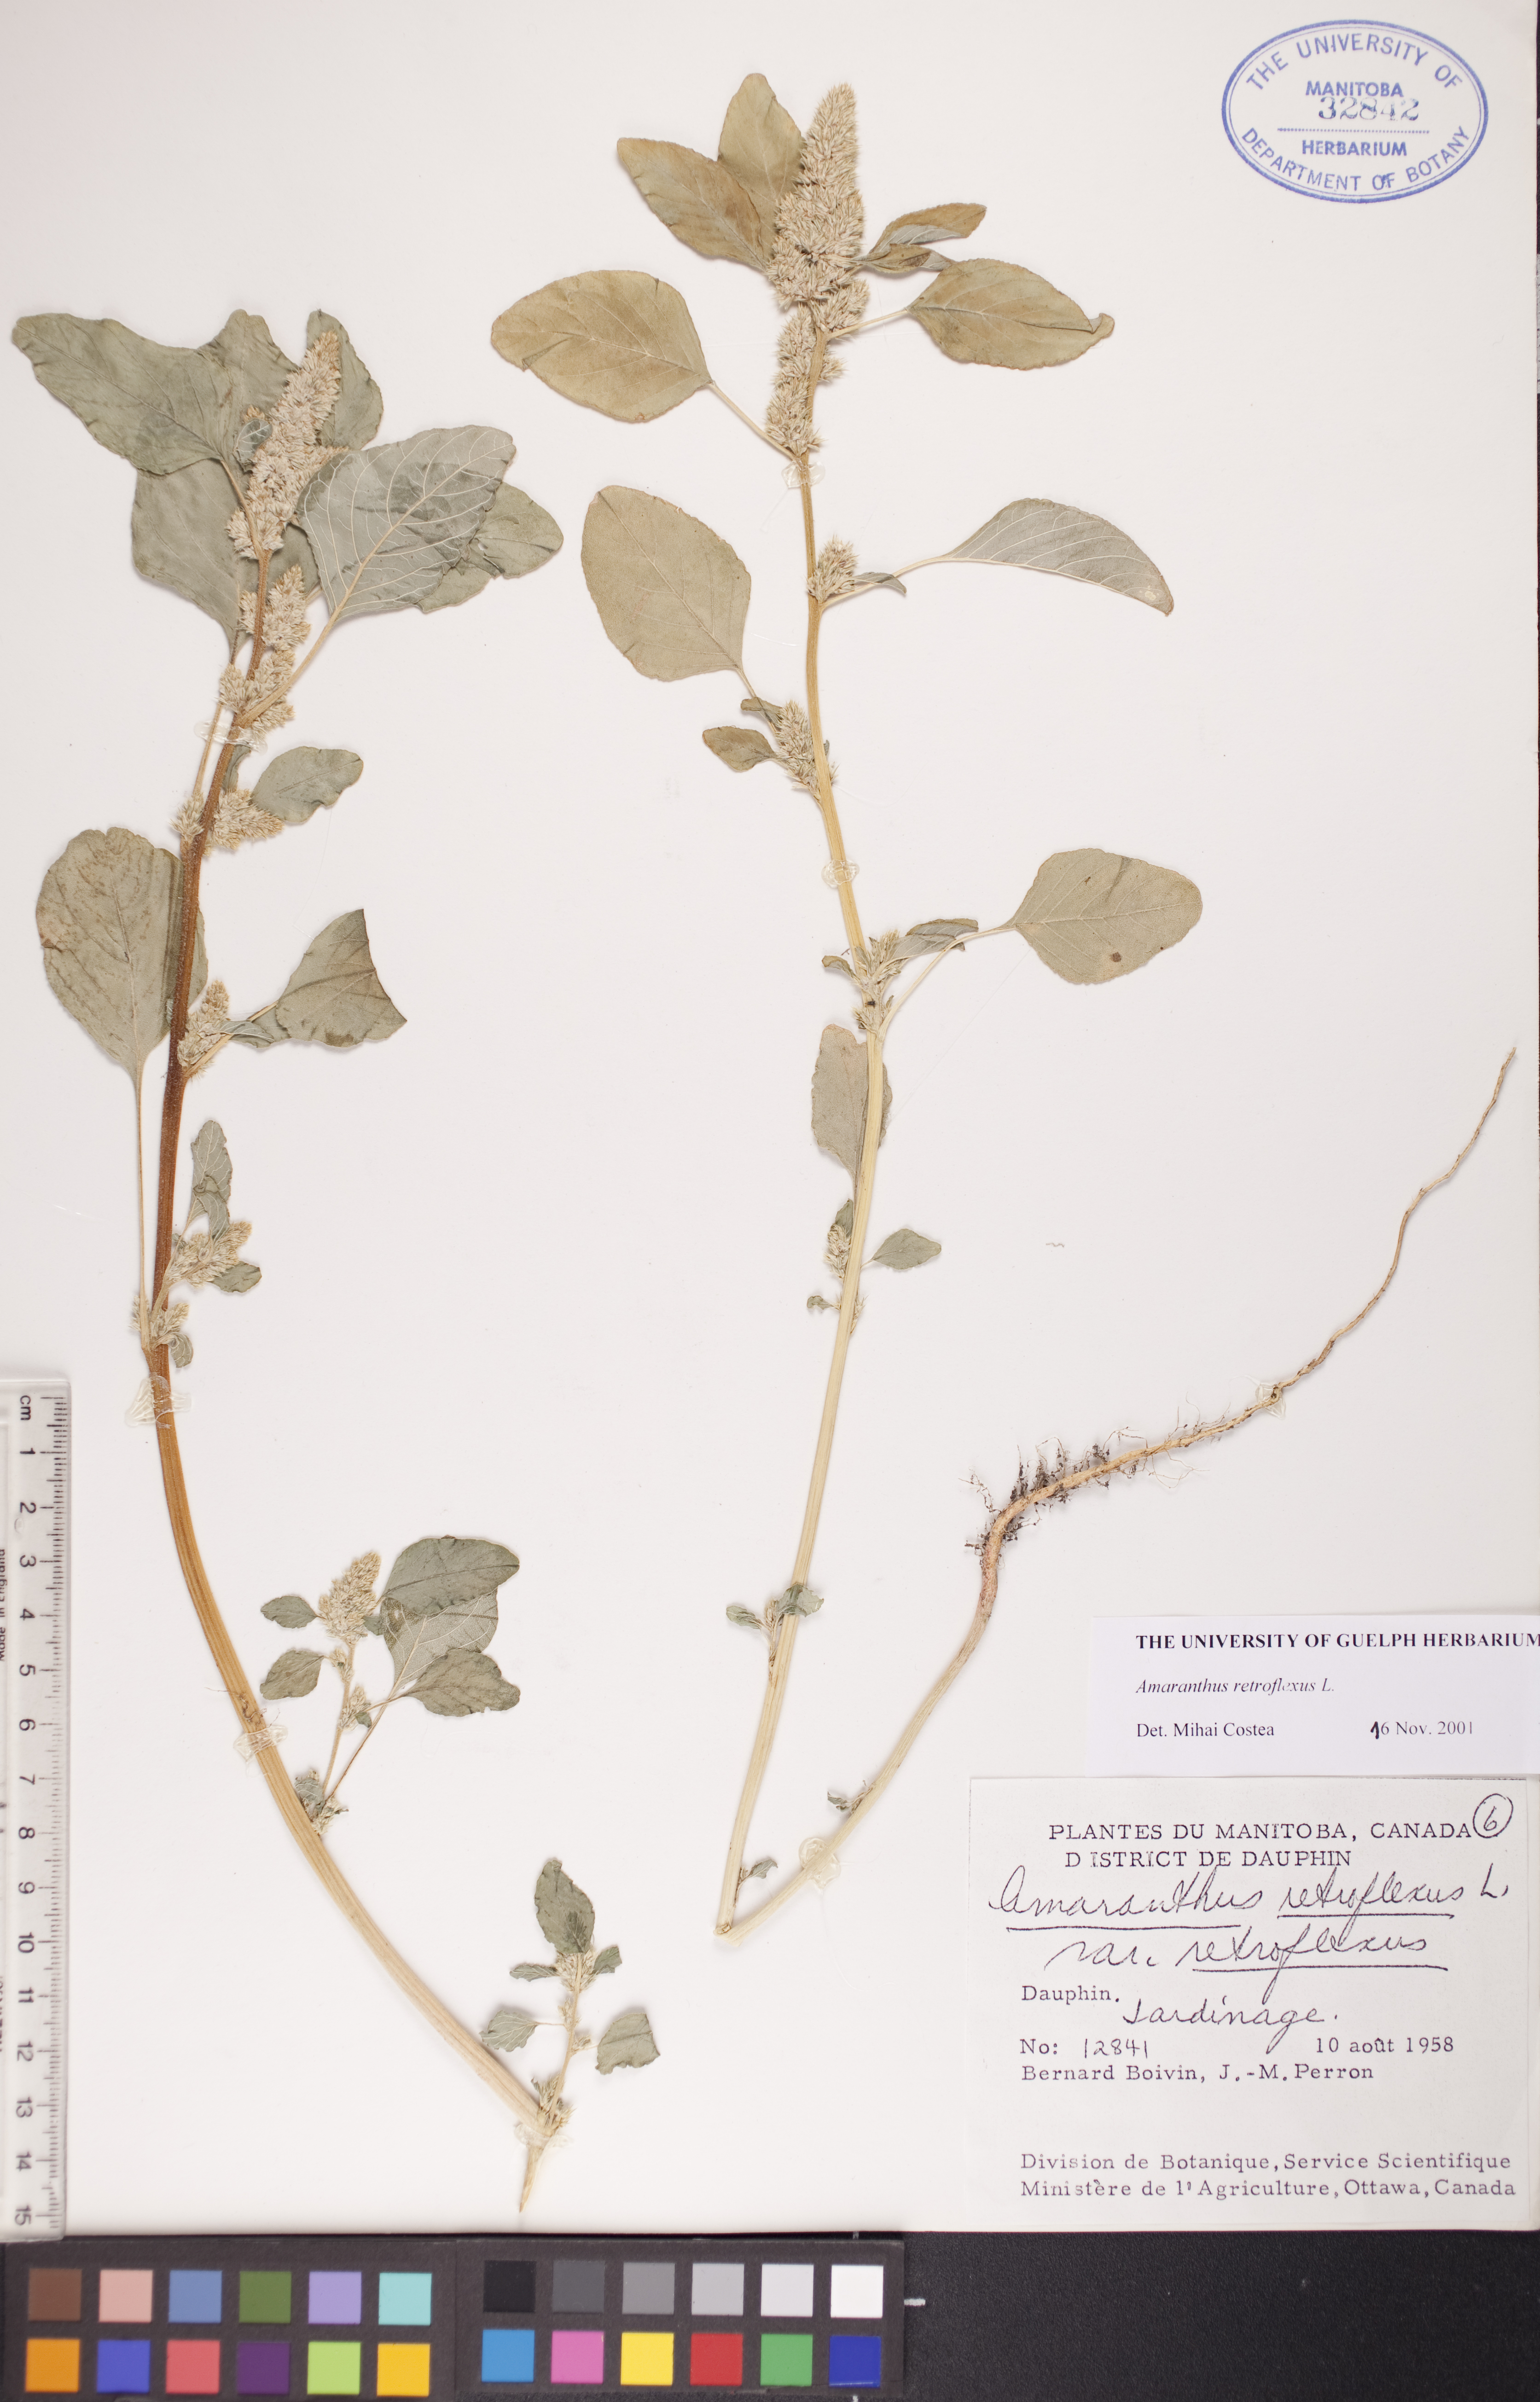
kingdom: Plantae
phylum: Tracheophyta
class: Magnoliopsida
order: Caryophyllales
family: Amaranthaceae
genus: Amaranthus
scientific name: Amaranthus retroflexus
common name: Redroot amaranth
